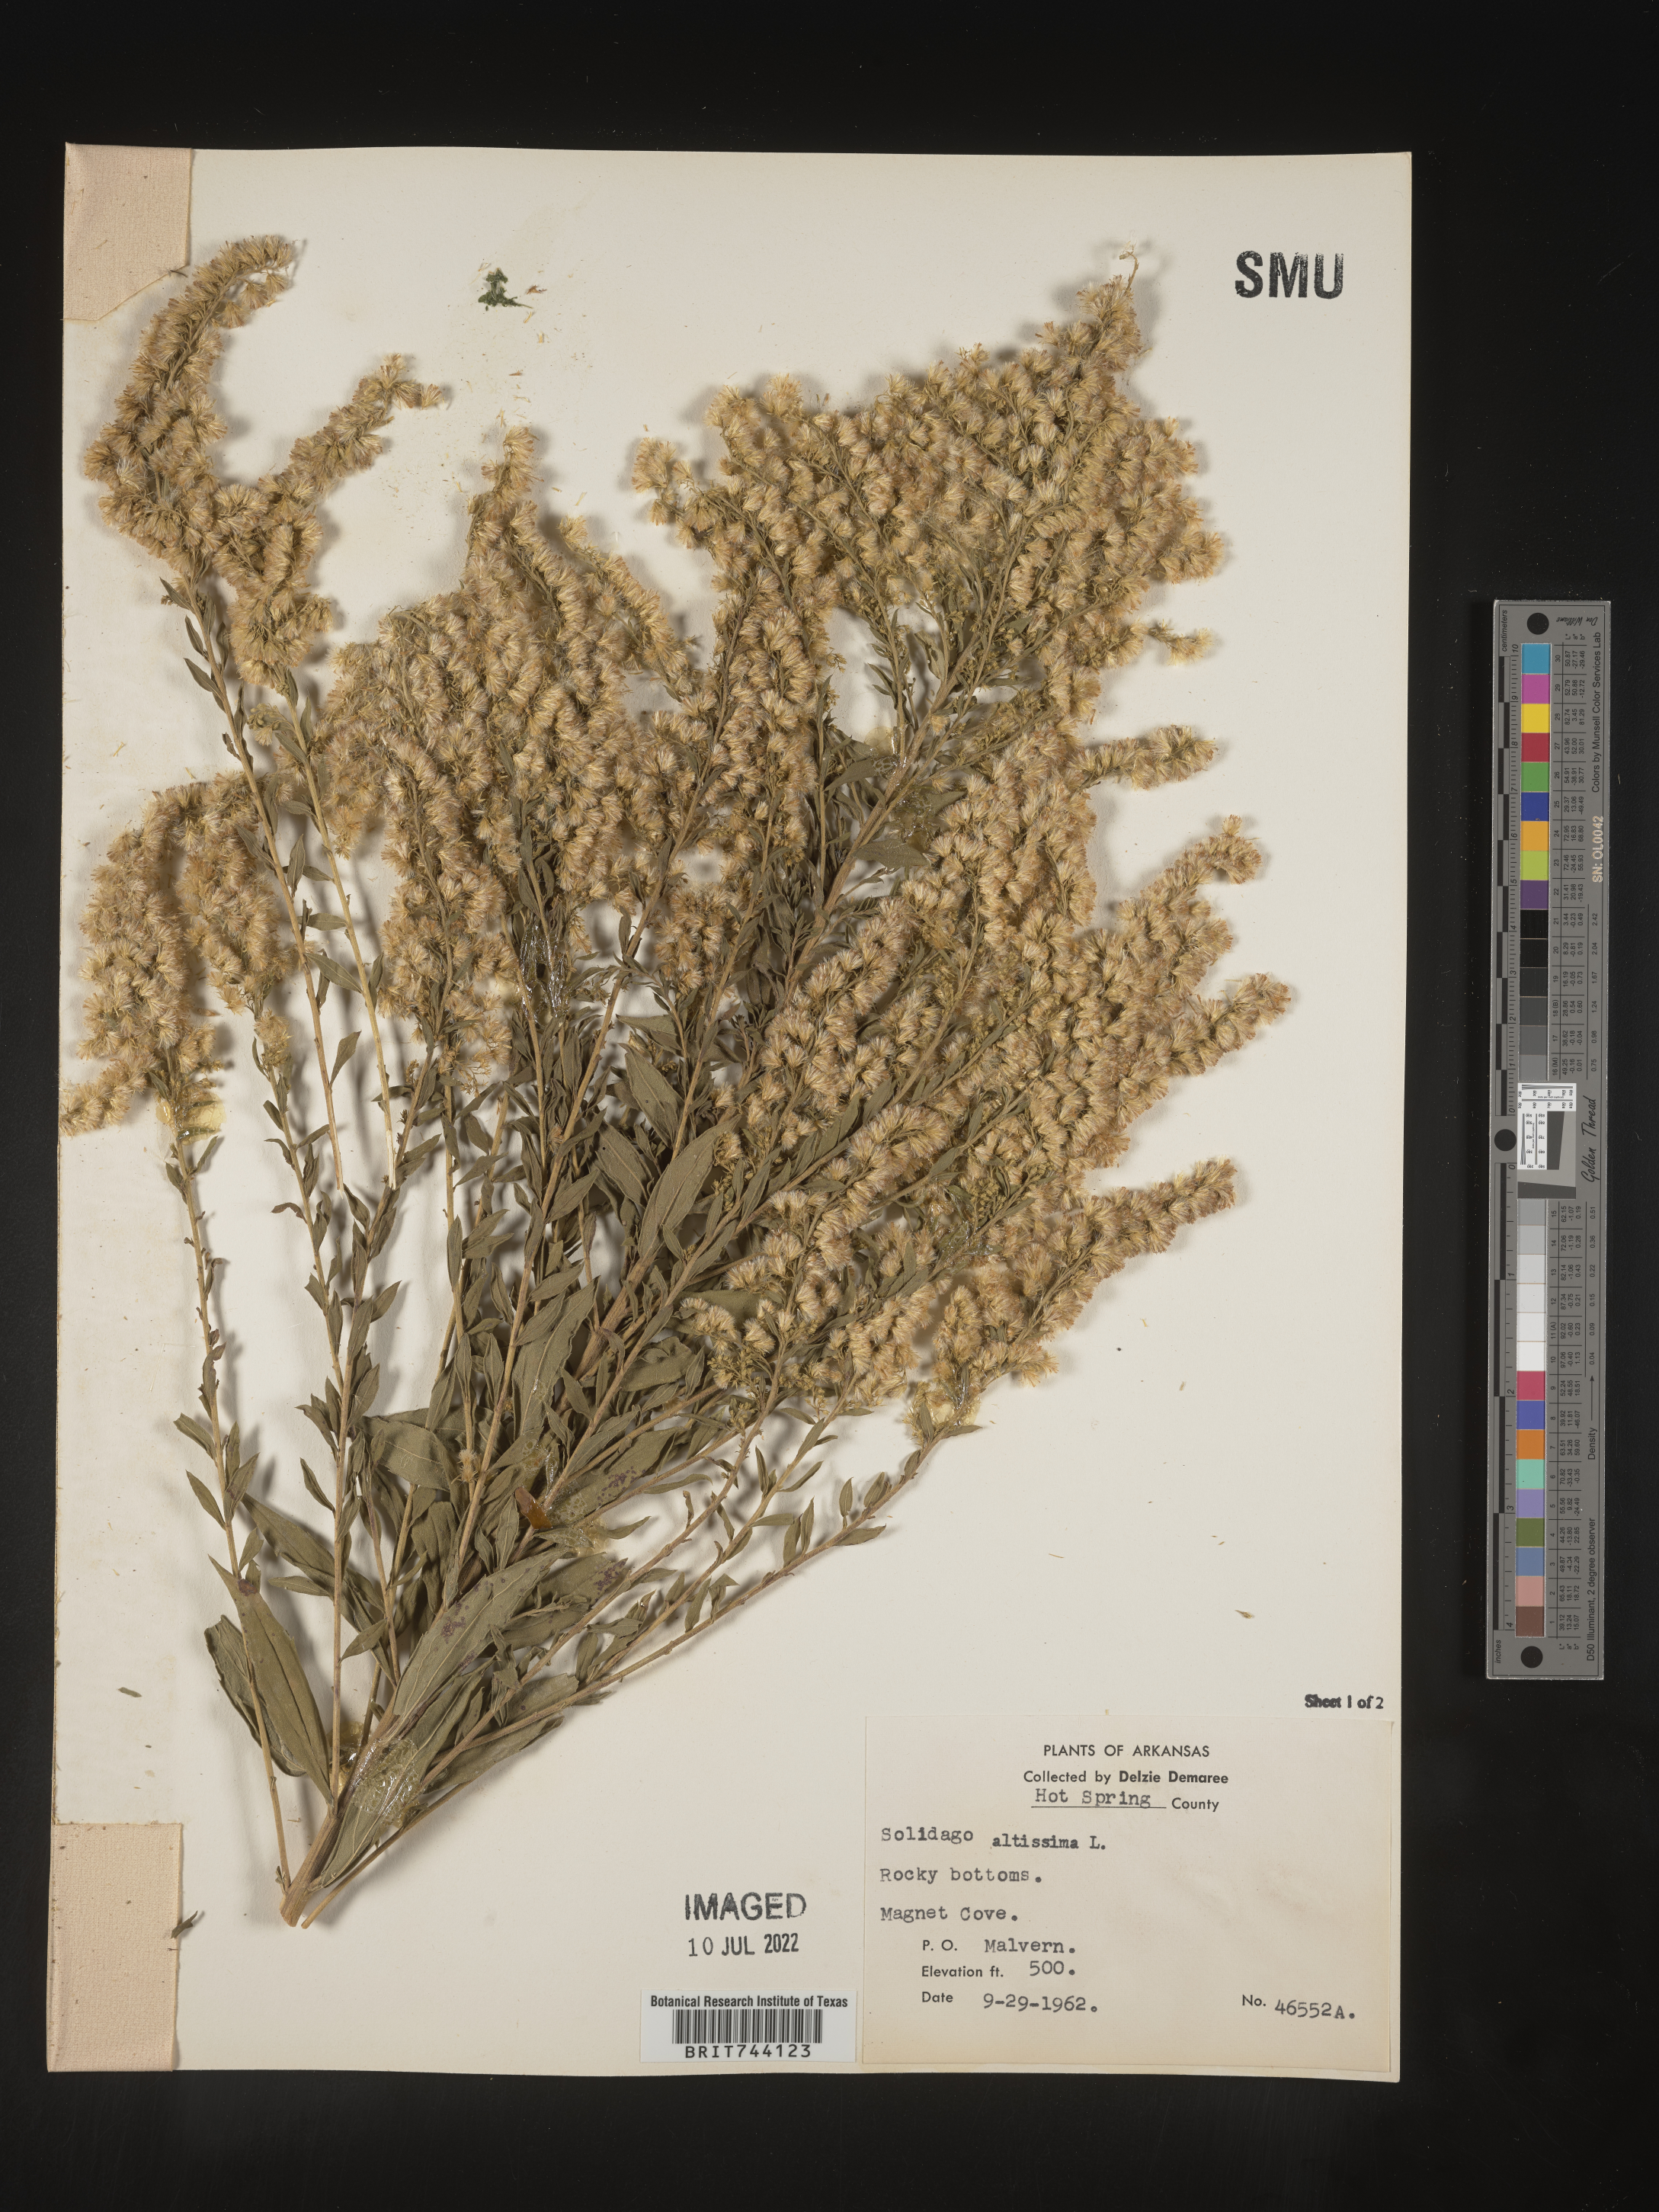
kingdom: Plantae
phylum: Tracheophyta
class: Magnoliopsida
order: Asterales
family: Asteraceae
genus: Solidago
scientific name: Solidago altissima
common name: Late goldenrod
